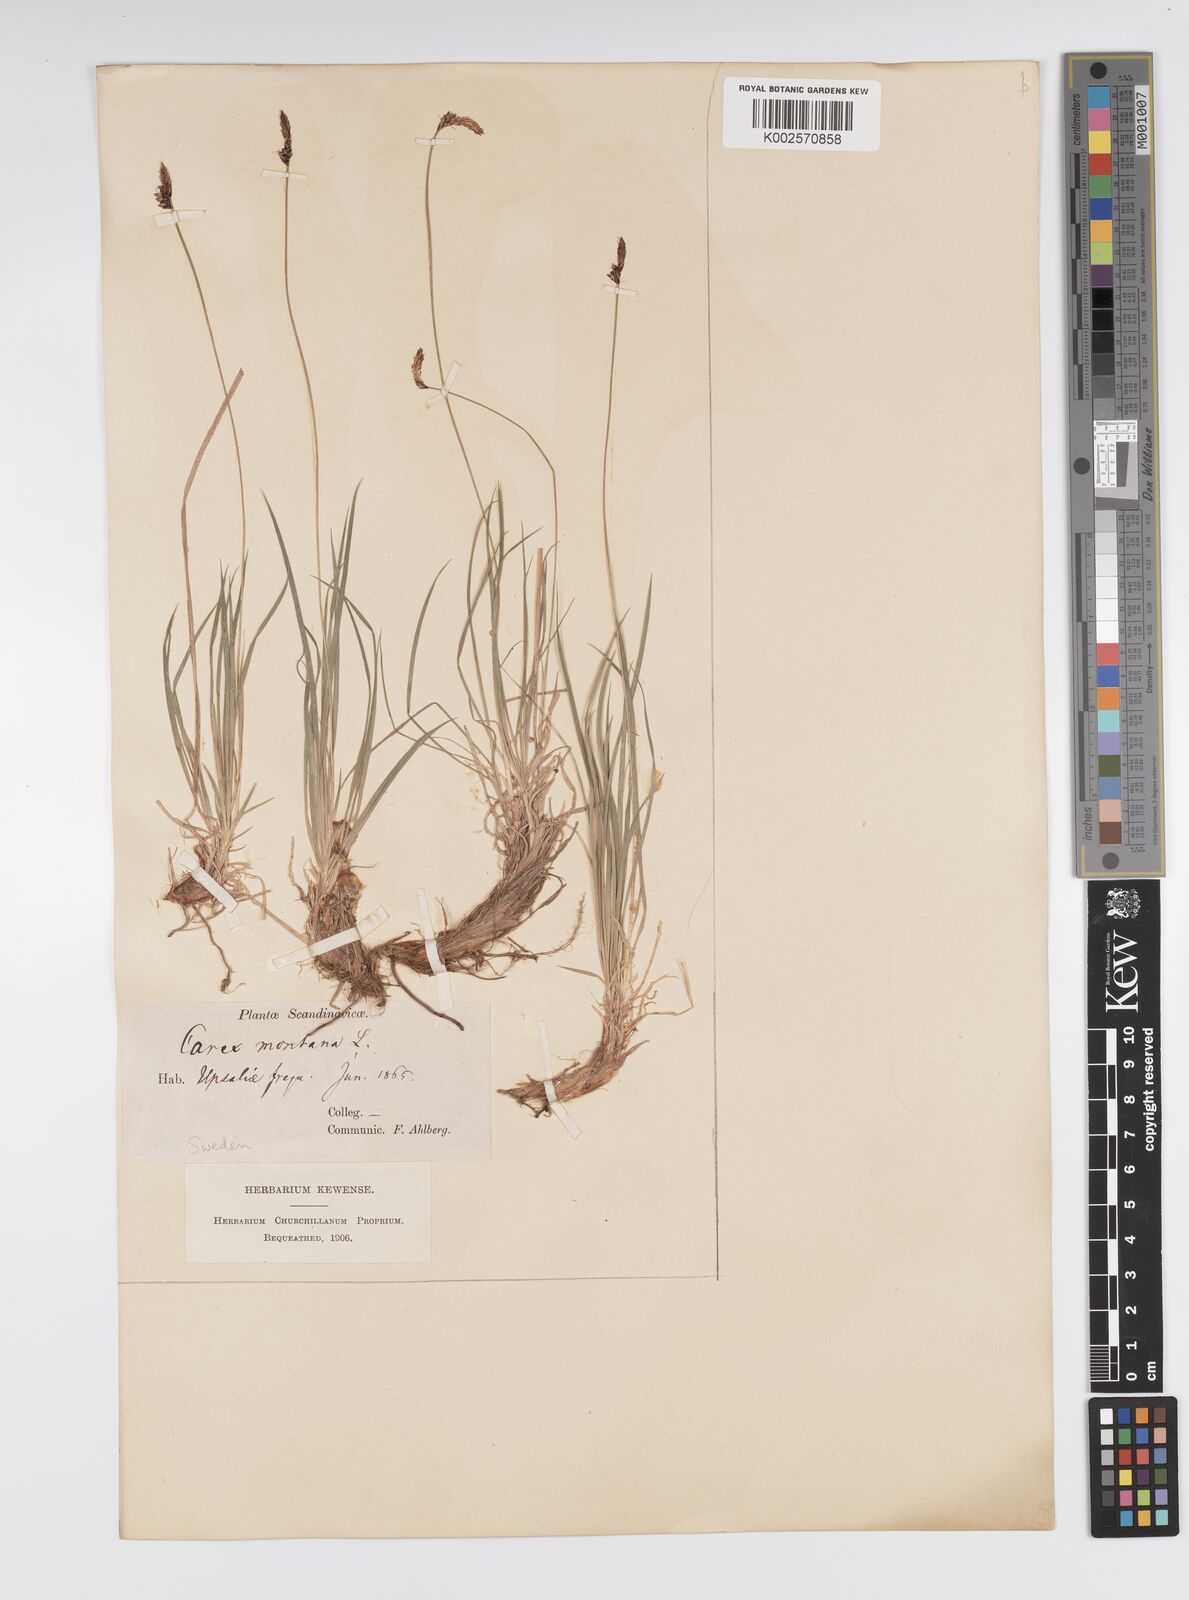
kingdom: Plantae
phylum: Tracheophyta
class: Liliopsida
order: Poales
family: Cyperaceae
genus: Carex
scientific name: Carex montana
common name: Soft-leaved sedge
